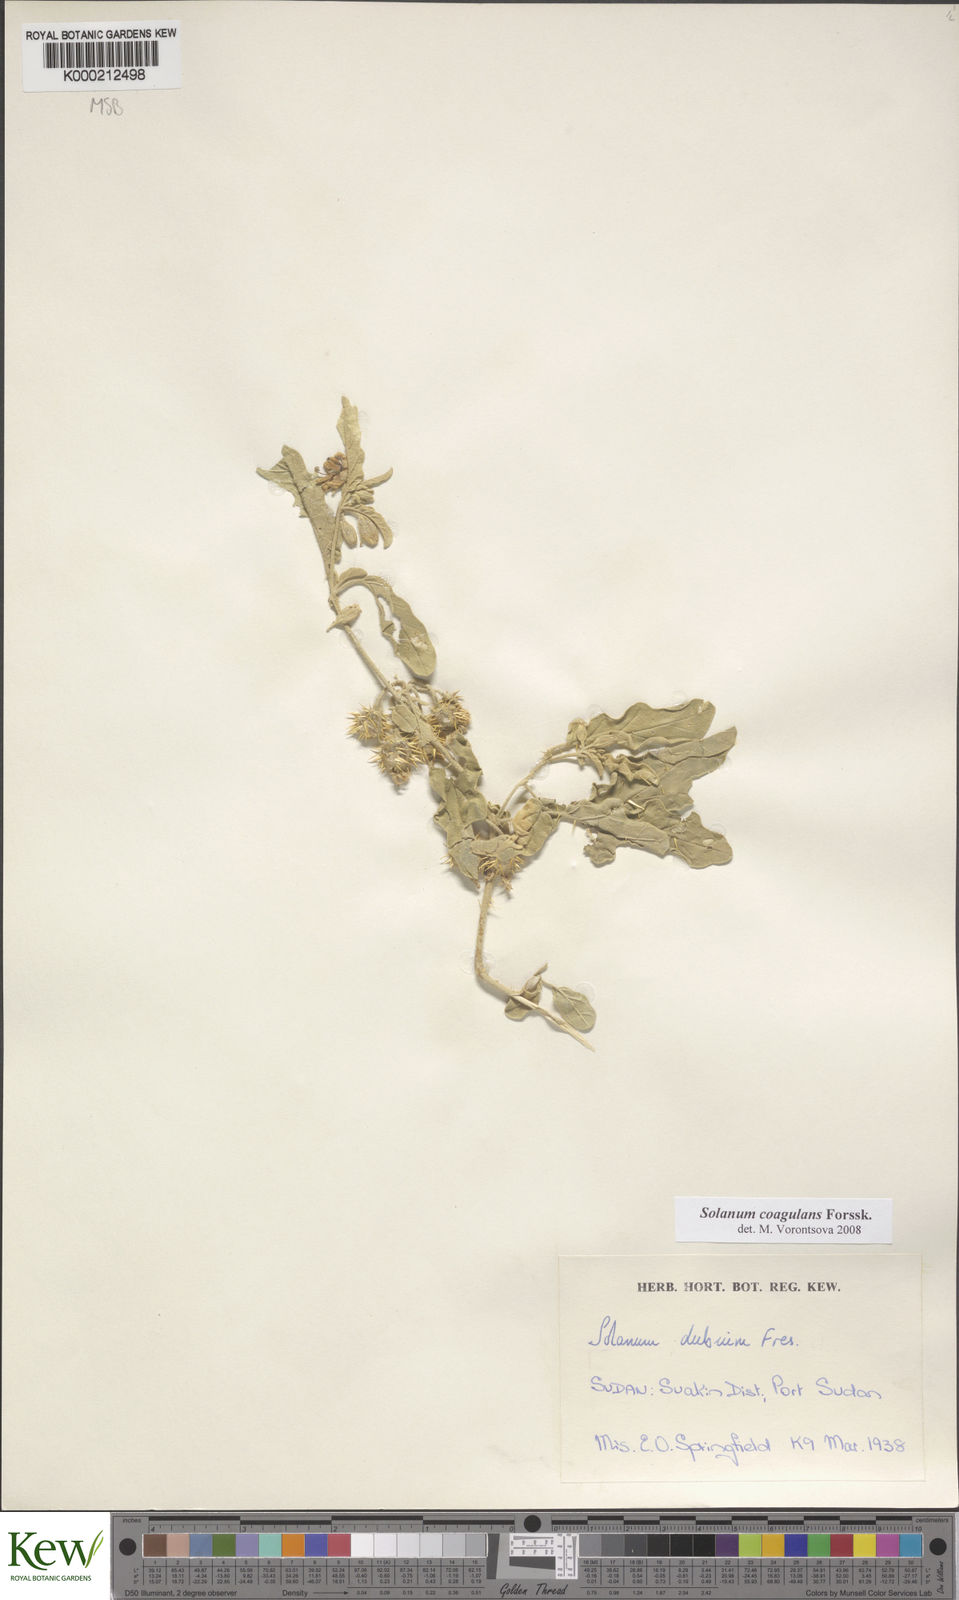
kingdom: Plantae
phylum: Tracheophyta
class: Magnoliopsida
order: Solanales
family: Solanaceae
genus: Solanum
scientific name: Solanum coagulans
